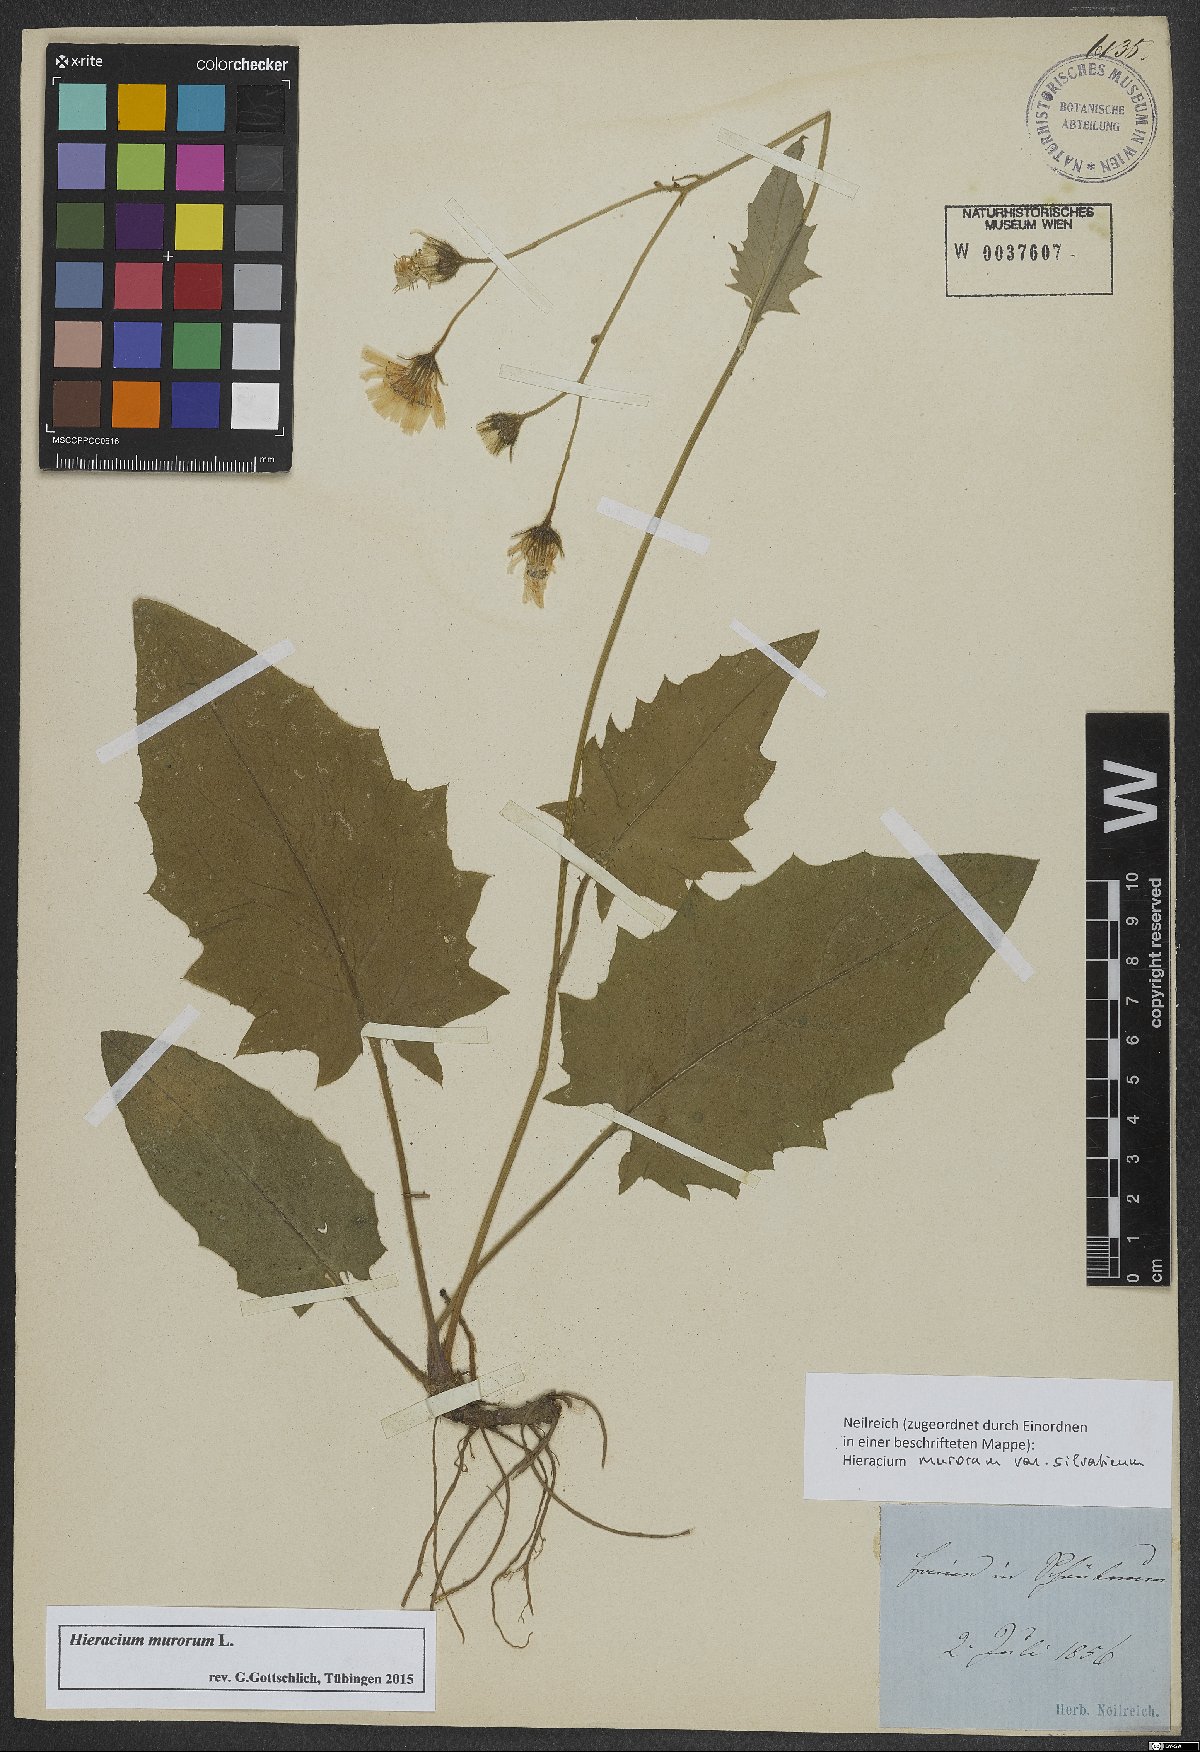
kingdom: Plantae
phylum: Tracheophyta
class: Magnoliopsida
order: Asterales
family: Asteraceae
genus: Hieracium
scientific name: Hieracium murorum
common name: Wall hawkweed
